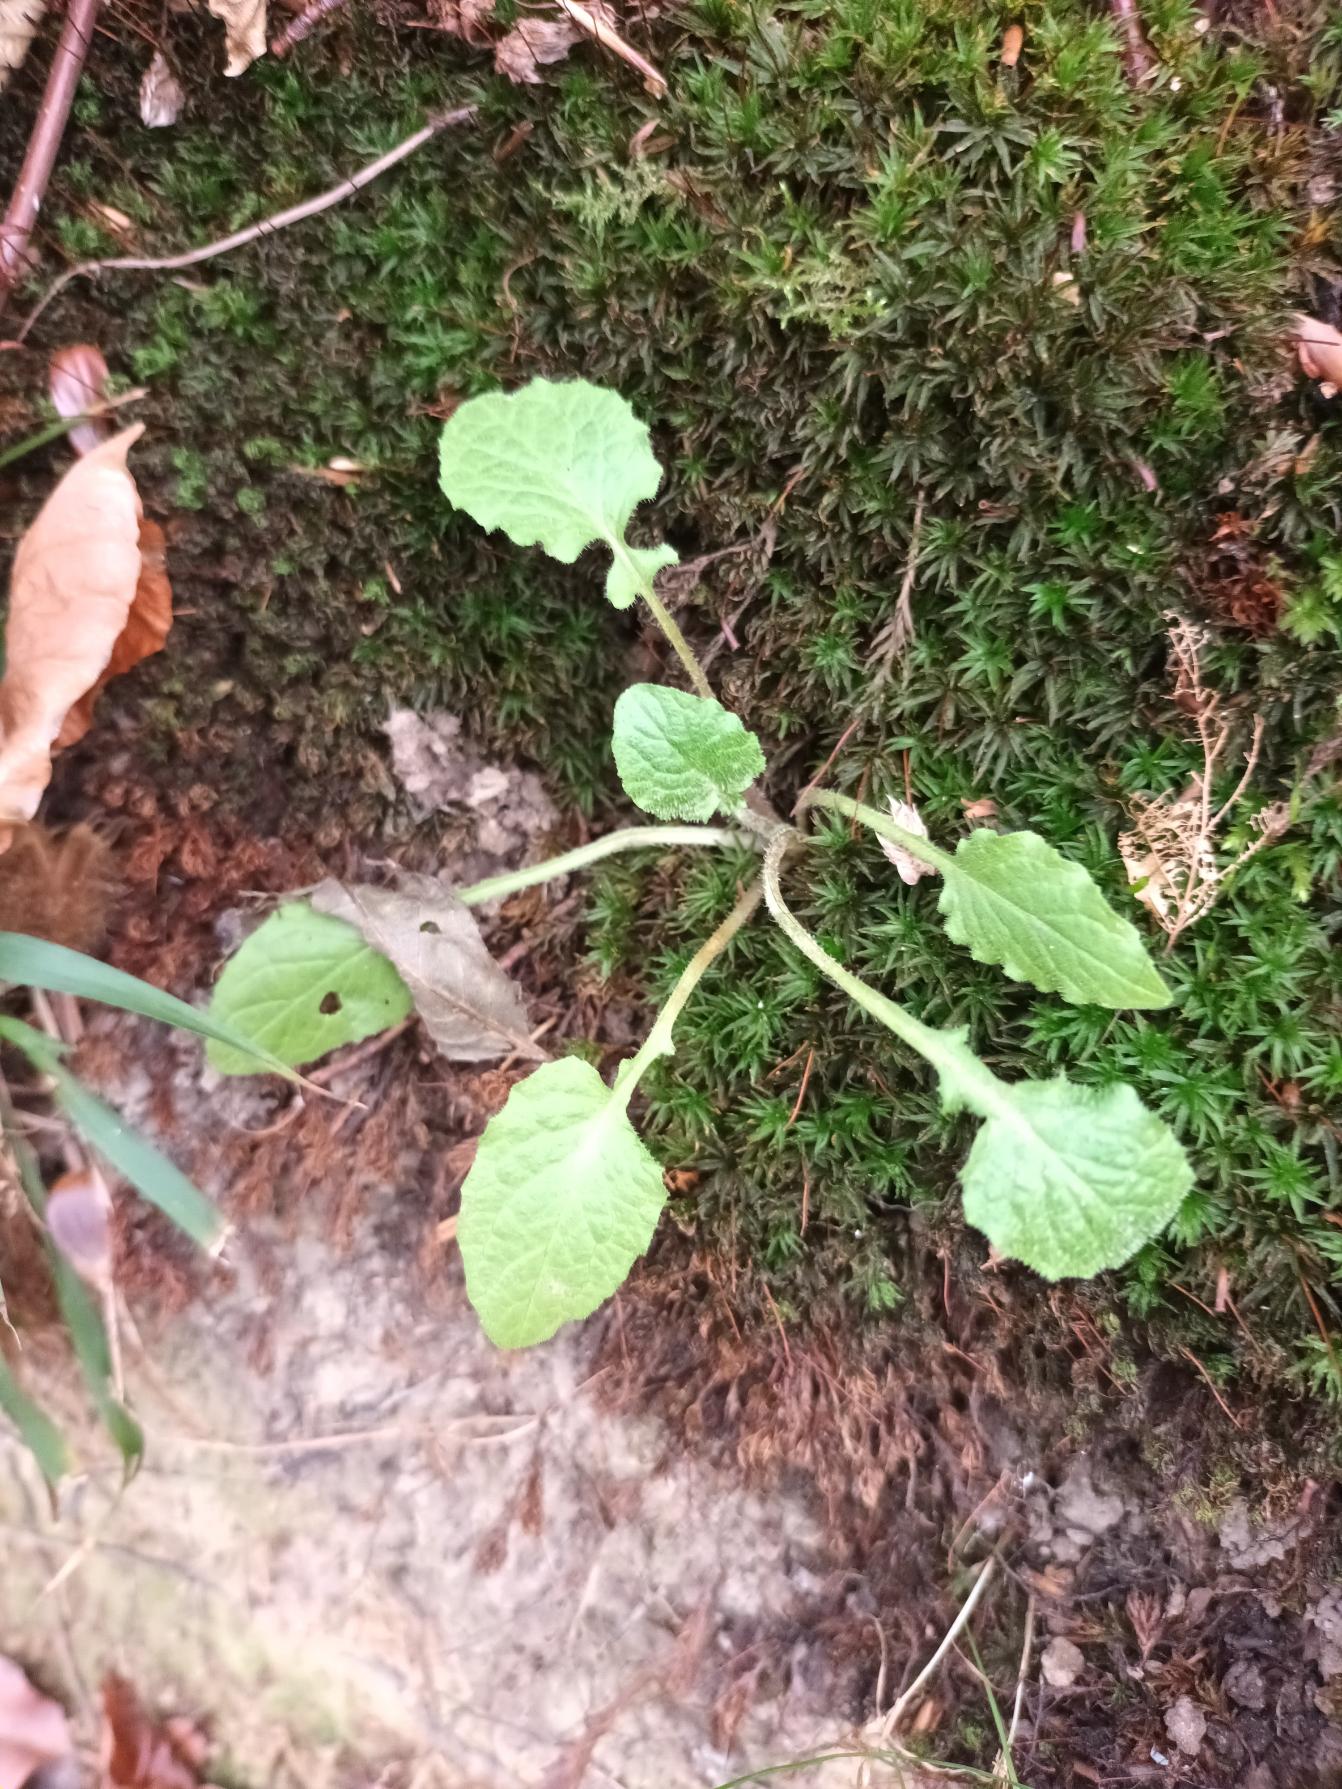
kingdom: Plantae
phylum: Tracheophyta
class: Magnoliopsida
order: Asterales
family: Asteraceae
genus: Lapsana
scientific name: Lapsana communis
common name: Haremad
